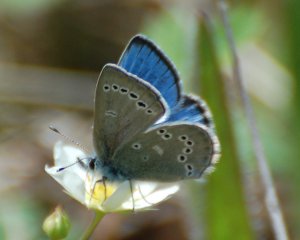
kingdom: Animalia
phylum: Arthropoda
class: Insecta
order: Lepidoptera
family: Lycaenidae
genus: Glaucopsyche
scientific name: Glaucopsyche lygdamus
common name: Silvery Blue
